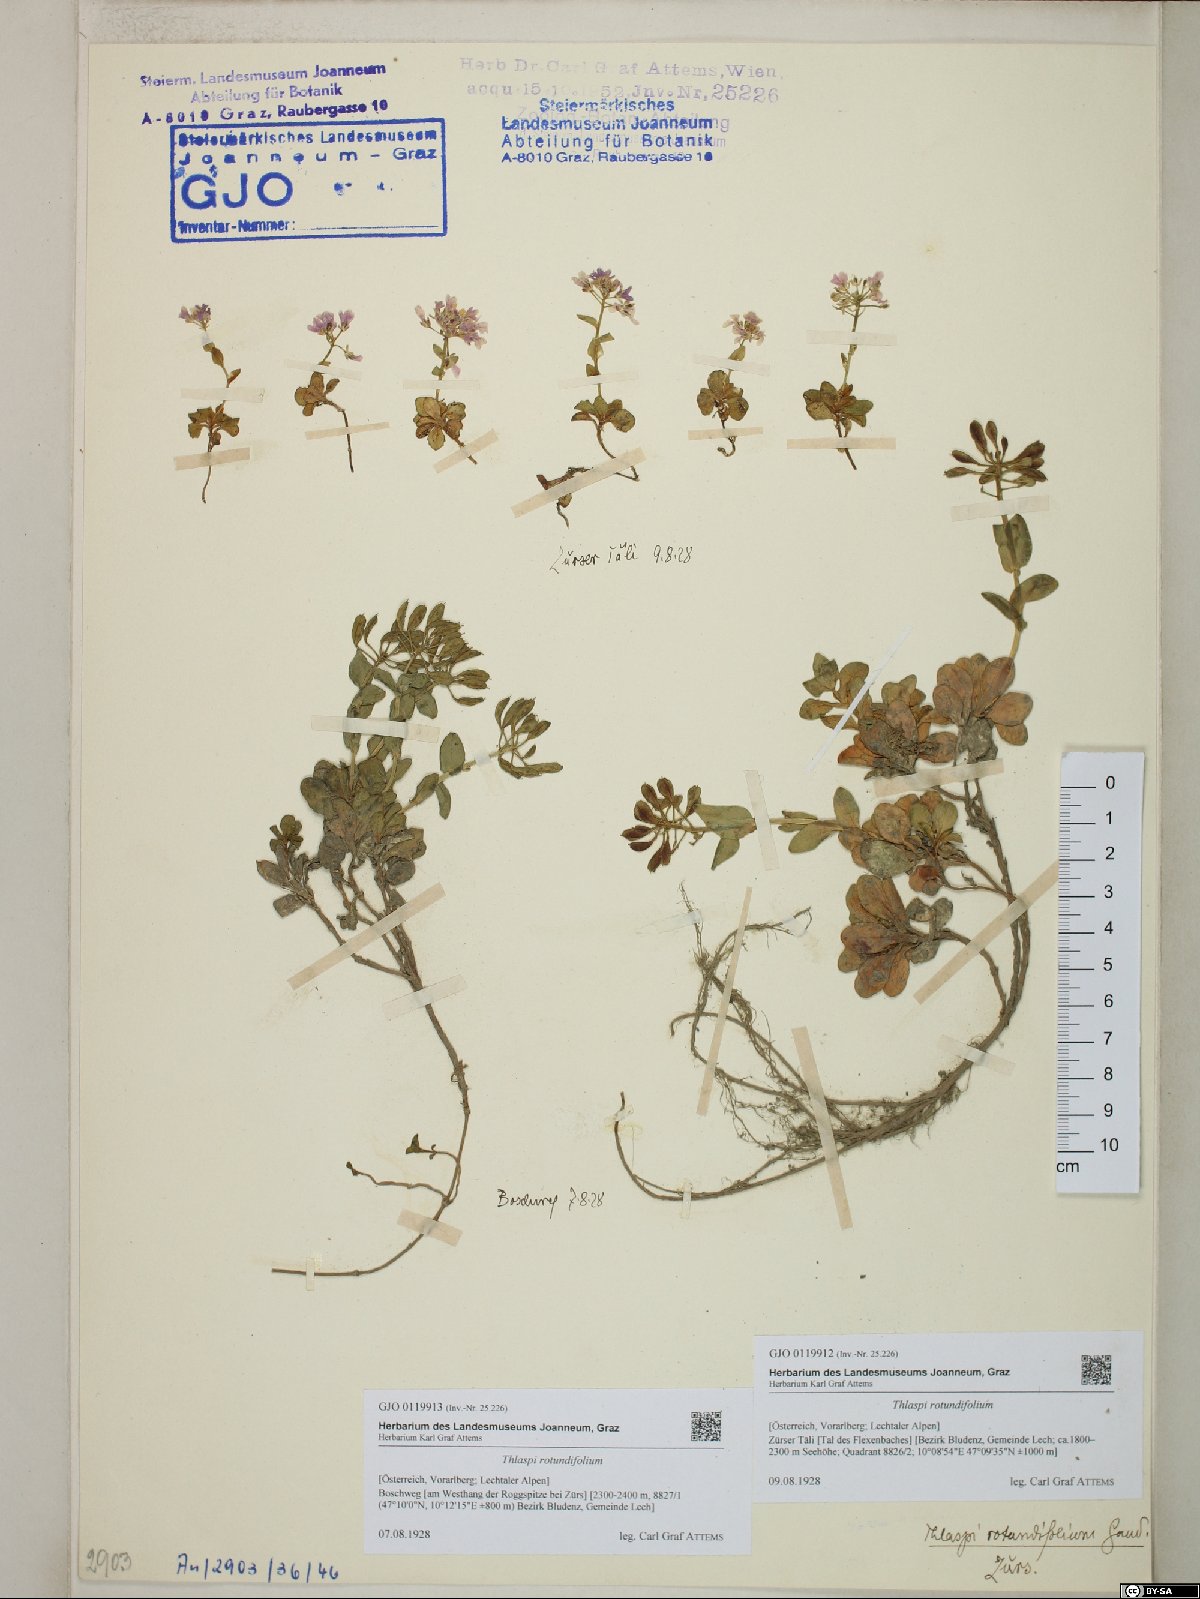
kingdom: Plantae
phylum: Tracheophyta
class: Magnoliopsida
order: Brassicales
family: Brassicaceae
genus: Noccaea
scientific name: Noccaea rotundifolia
